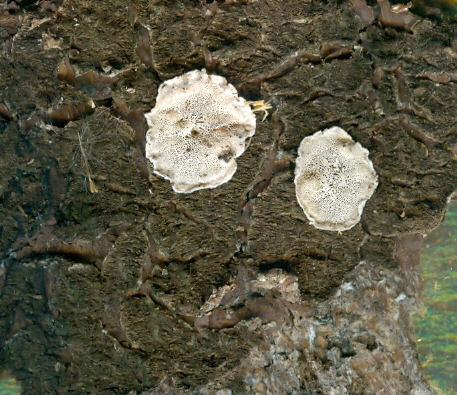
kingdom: Fungi
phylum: Basidiomycota
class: Agaricomycetes
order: Polyporales
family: Incrustoporiaceae
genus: Skeletocutis
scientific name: Skeletocutis carneogrisea
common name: rødgrå krystalporesvamp
